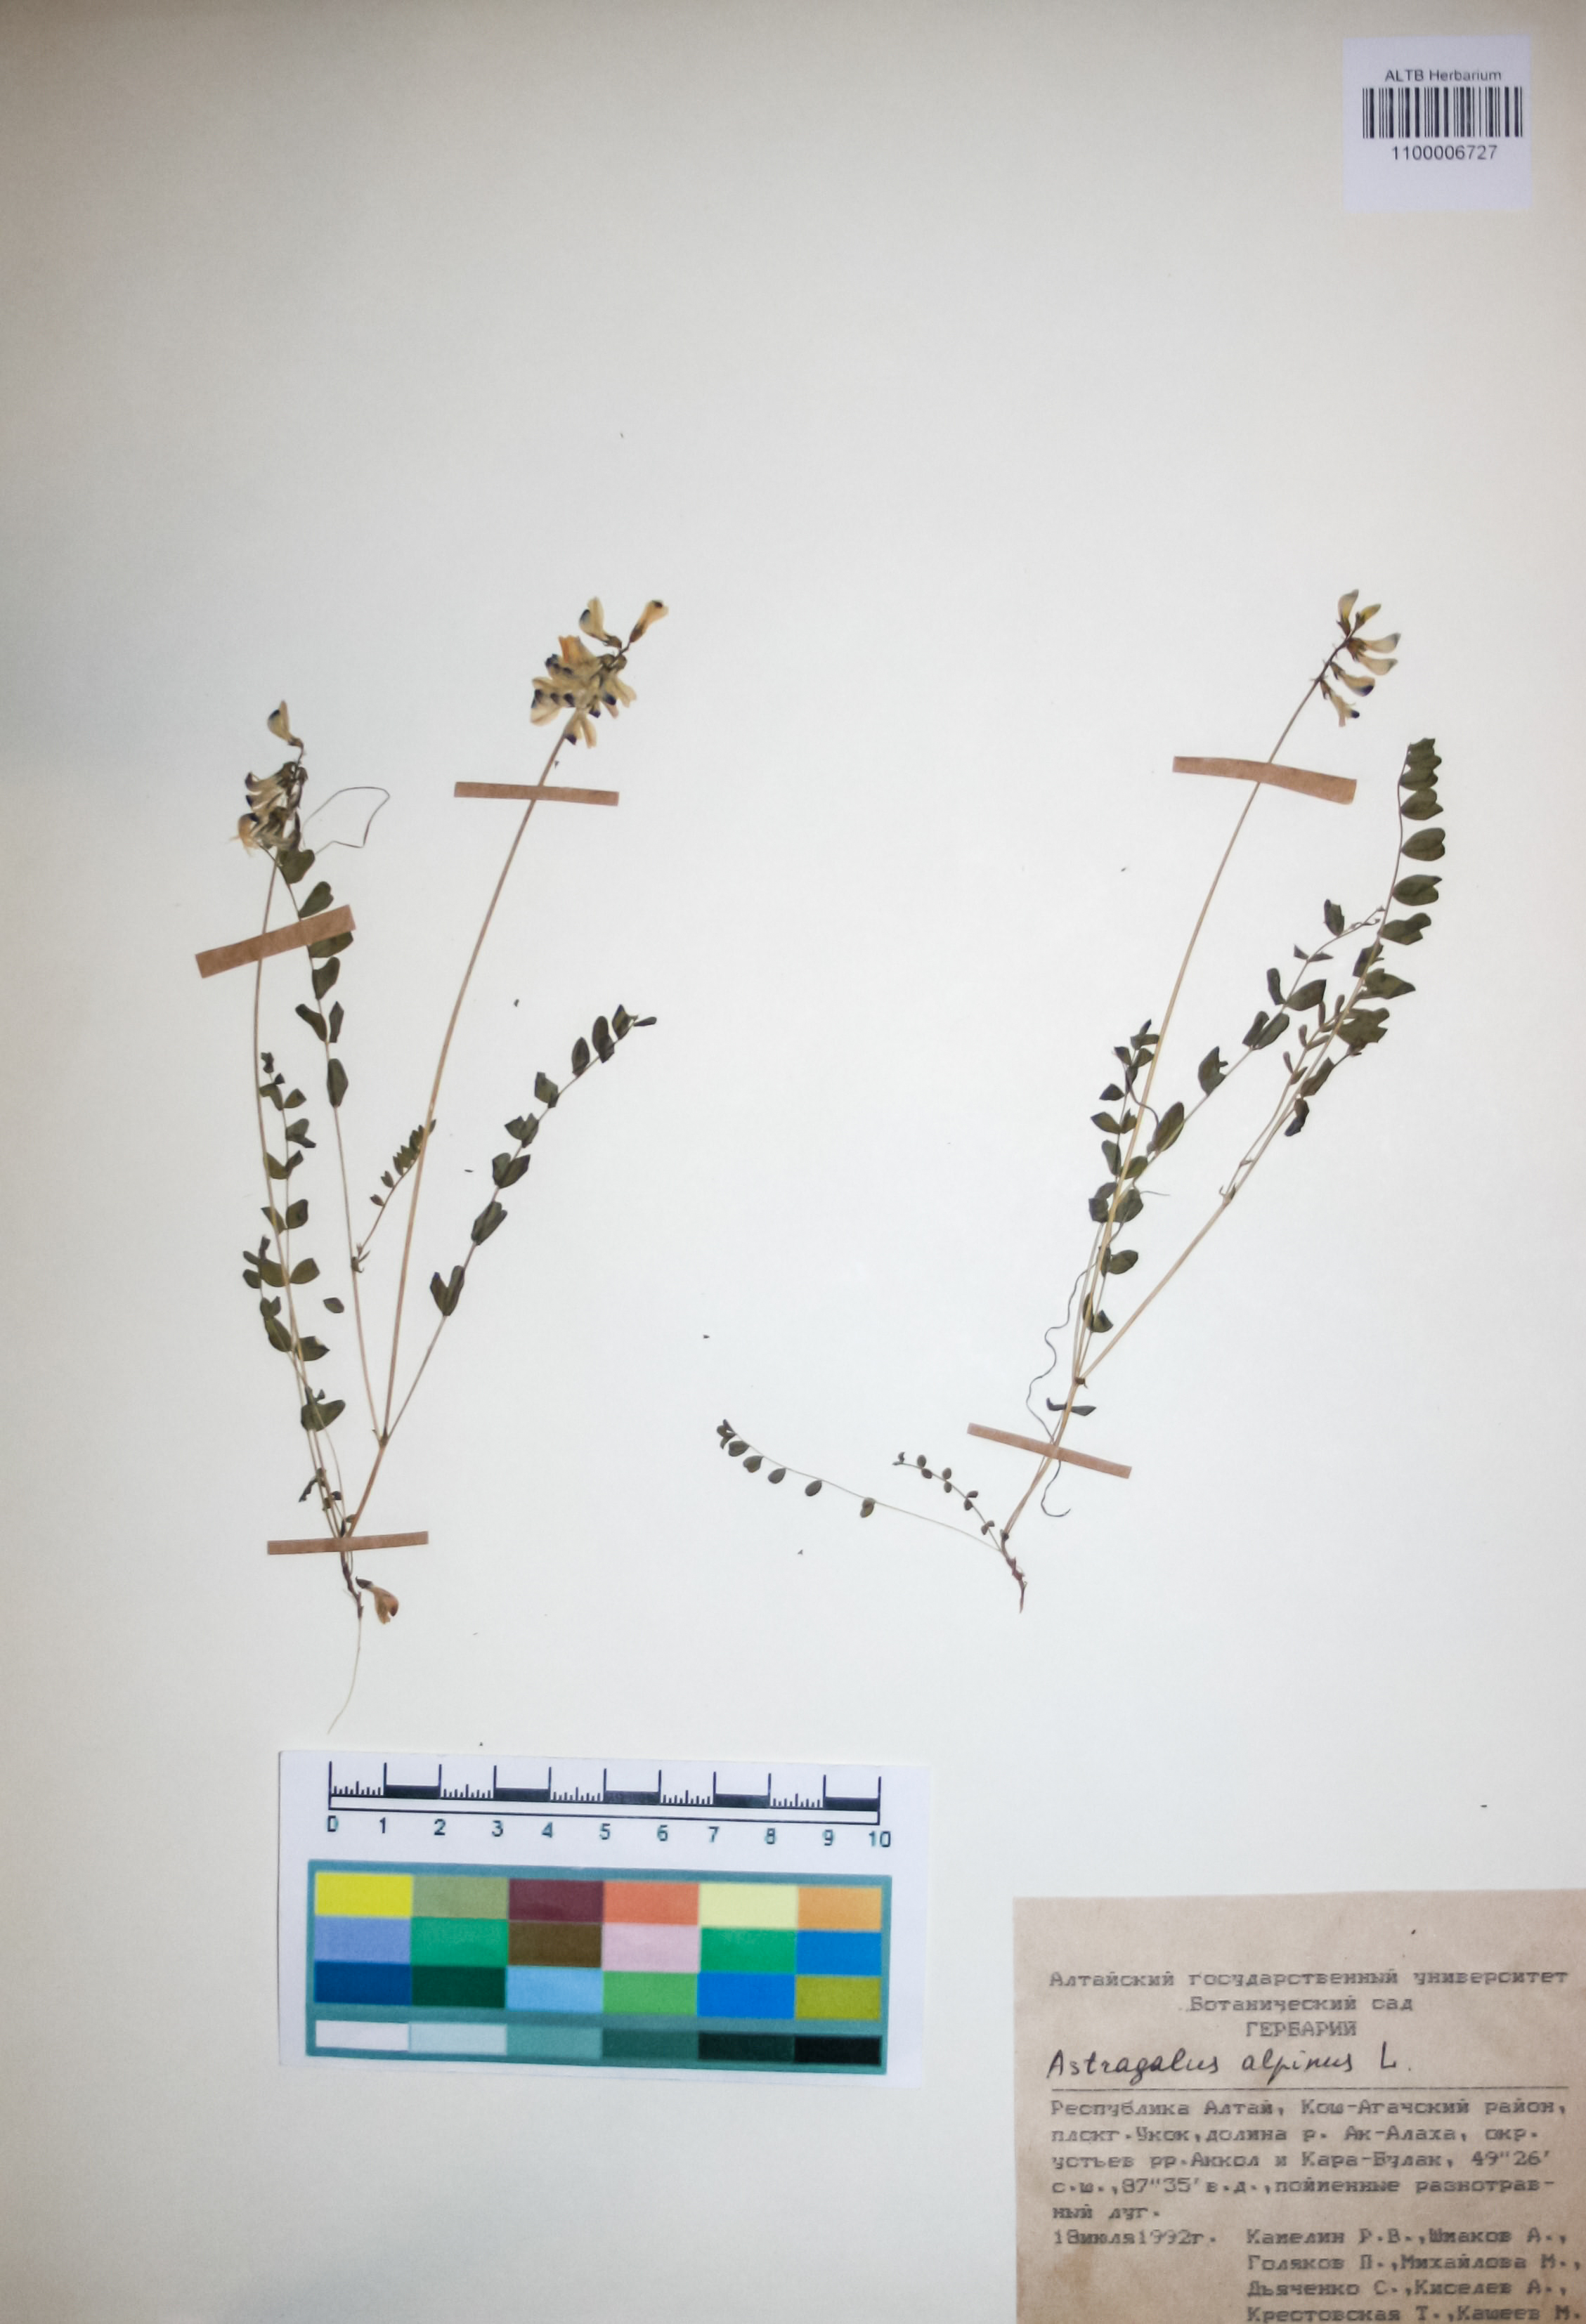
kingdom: Plantae
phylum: Tracheophyta
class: Magnoliopsida
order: Fabales
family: Fabaceae
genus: Astragalus
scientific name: Astragalus alpinus
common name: Alpine milk-vetch
